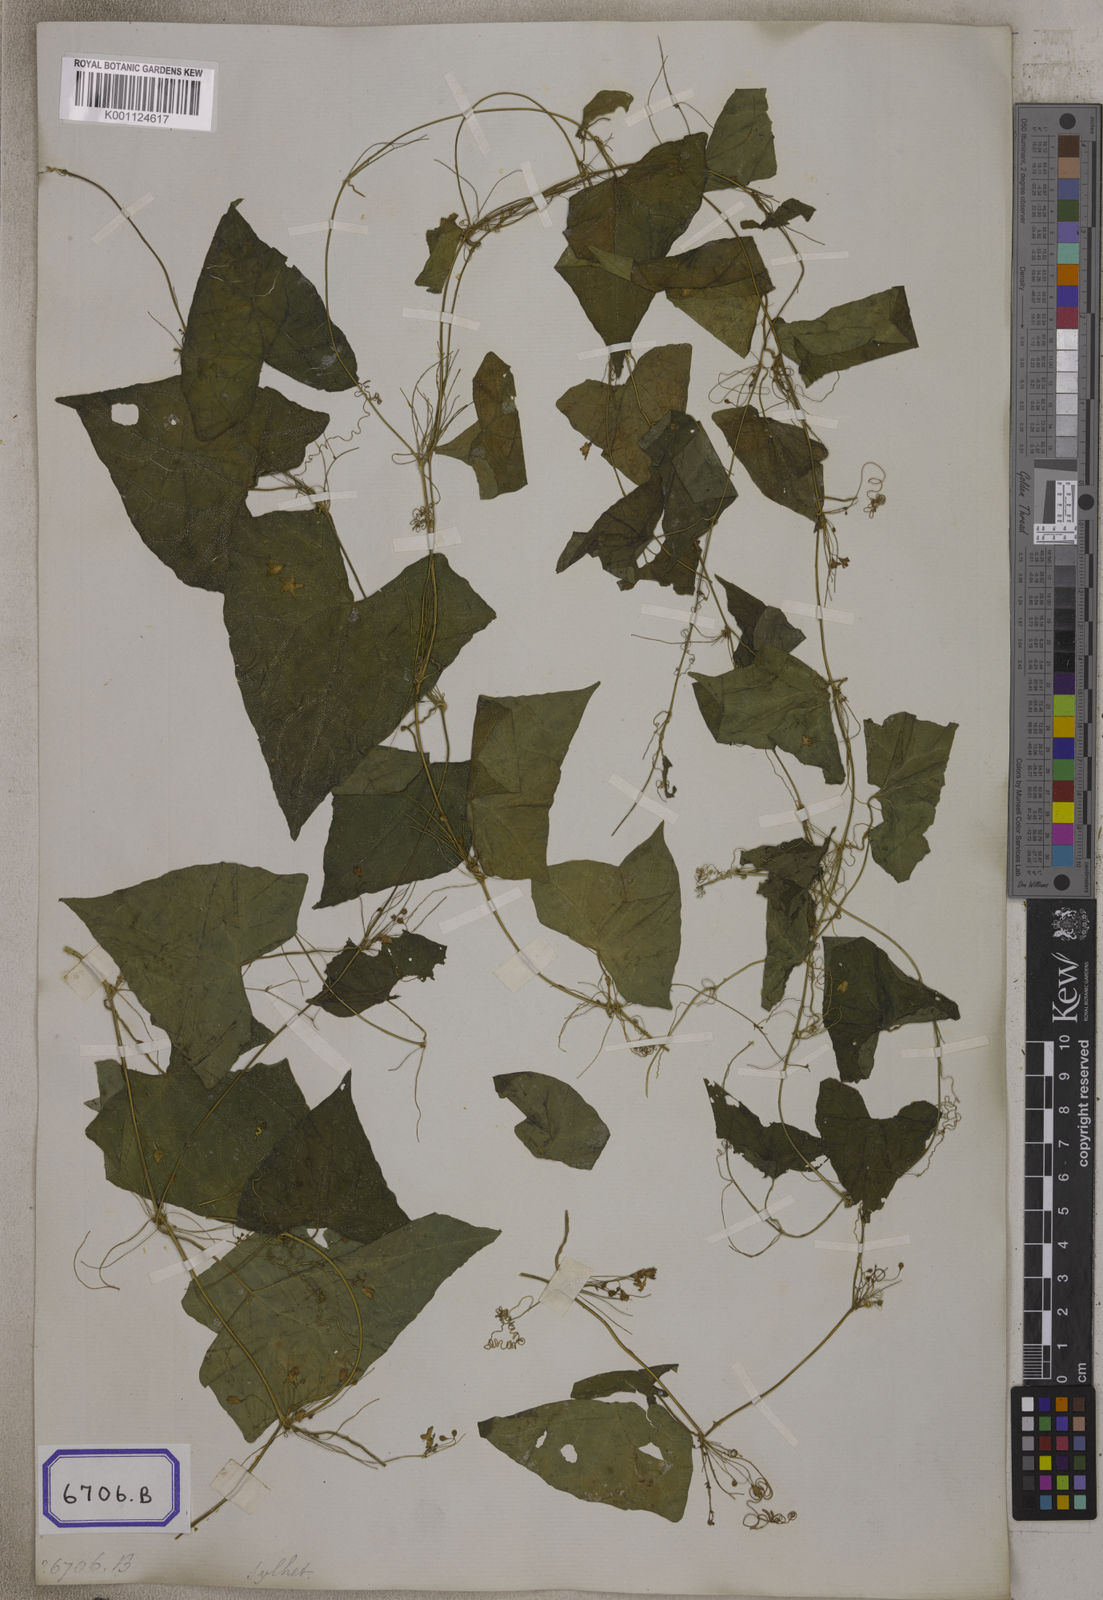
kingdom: Plantae
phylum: Tracheophyta
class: Magnoliopsida
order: Cucurbitales
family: Cucurbitaceae
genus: Zehneria
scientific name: Zehneria odorata
